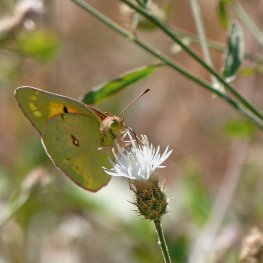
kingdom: Animalia
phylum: Arthropoda
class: Insecta
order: Lepidoptera
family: Pieridae
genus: Colias
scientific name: Colias eurytheme
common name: Orange Sulphur
